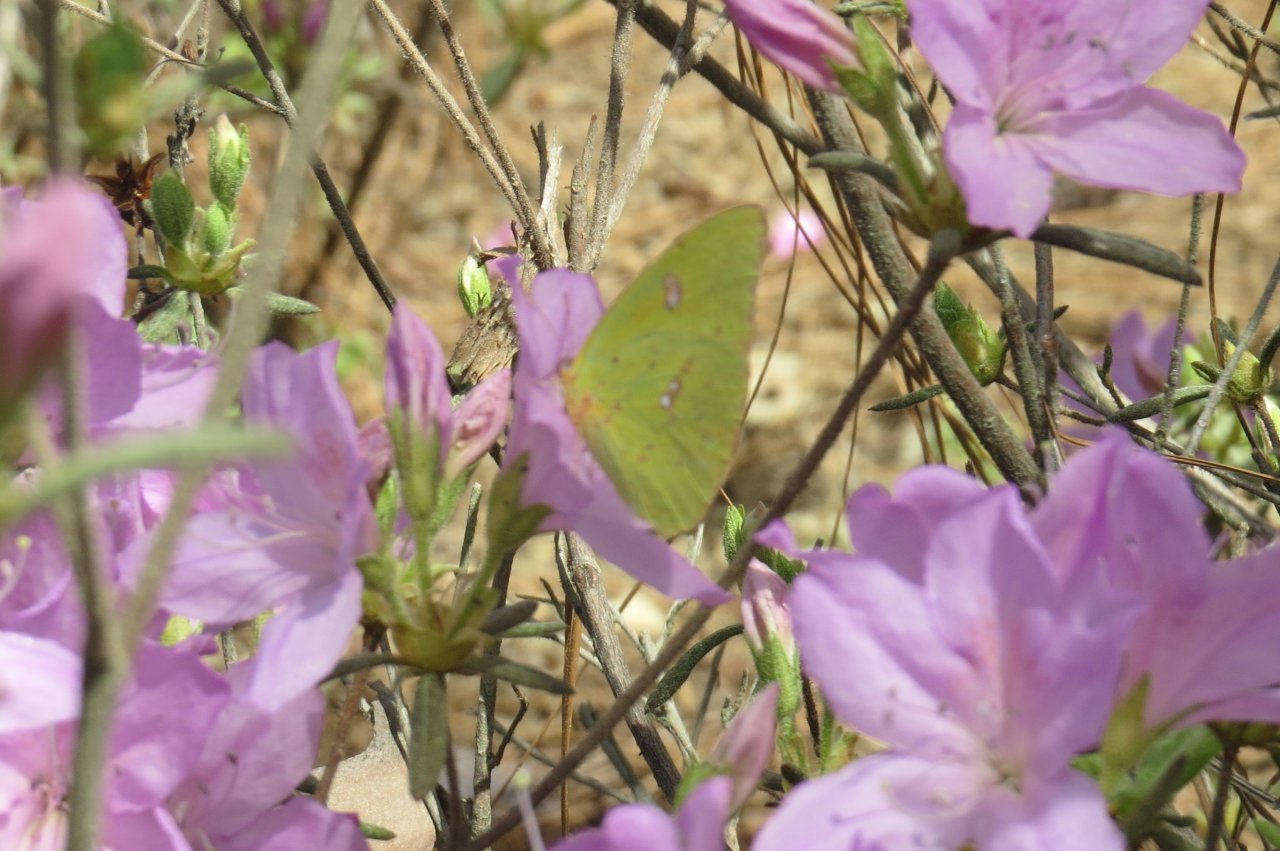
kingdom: Animalia
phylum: Arthropoda
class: Insecta
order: Lepidoptera
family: Pieridae
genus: Phoebis
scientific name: Phoebis sennae
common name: Cloudless Sulphur
